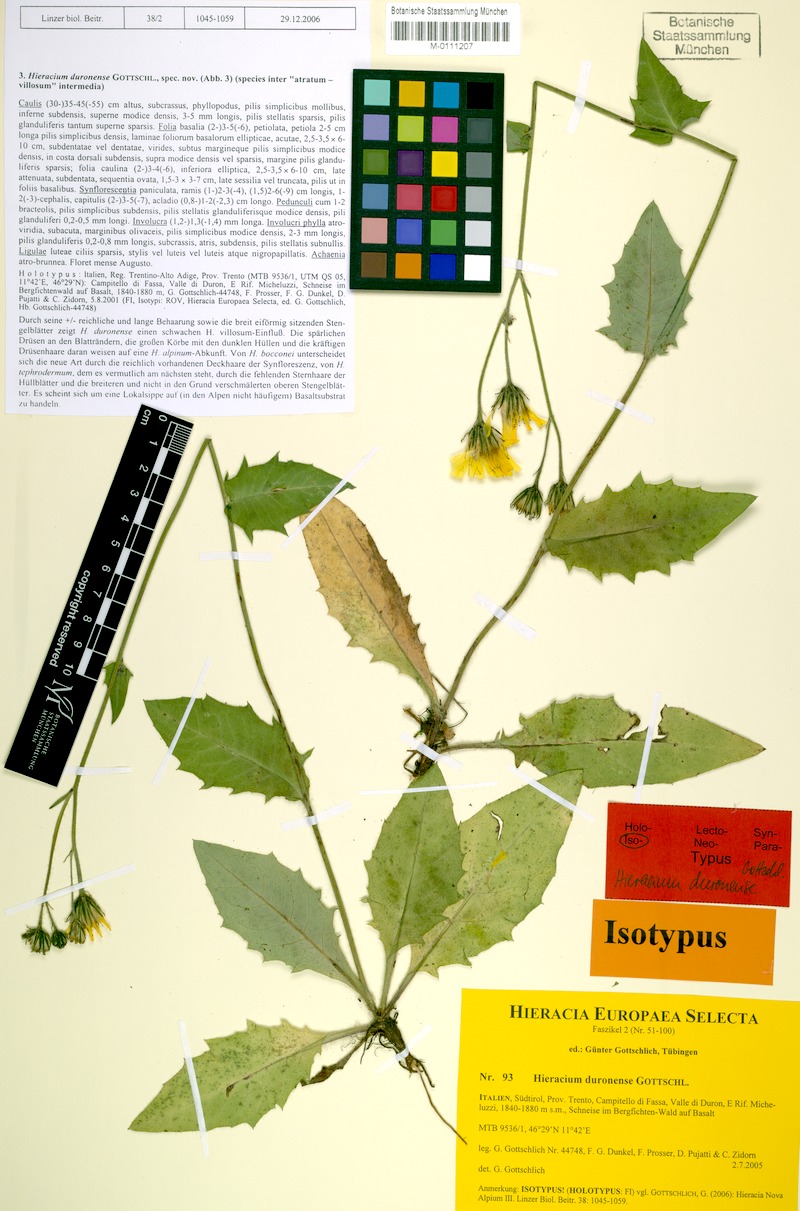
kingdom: Plantae
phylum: Tracheophyta
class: Magnoliopsida
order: Asterales
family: Asteraceae
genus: Hieracium
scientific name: Hieracium duronense
